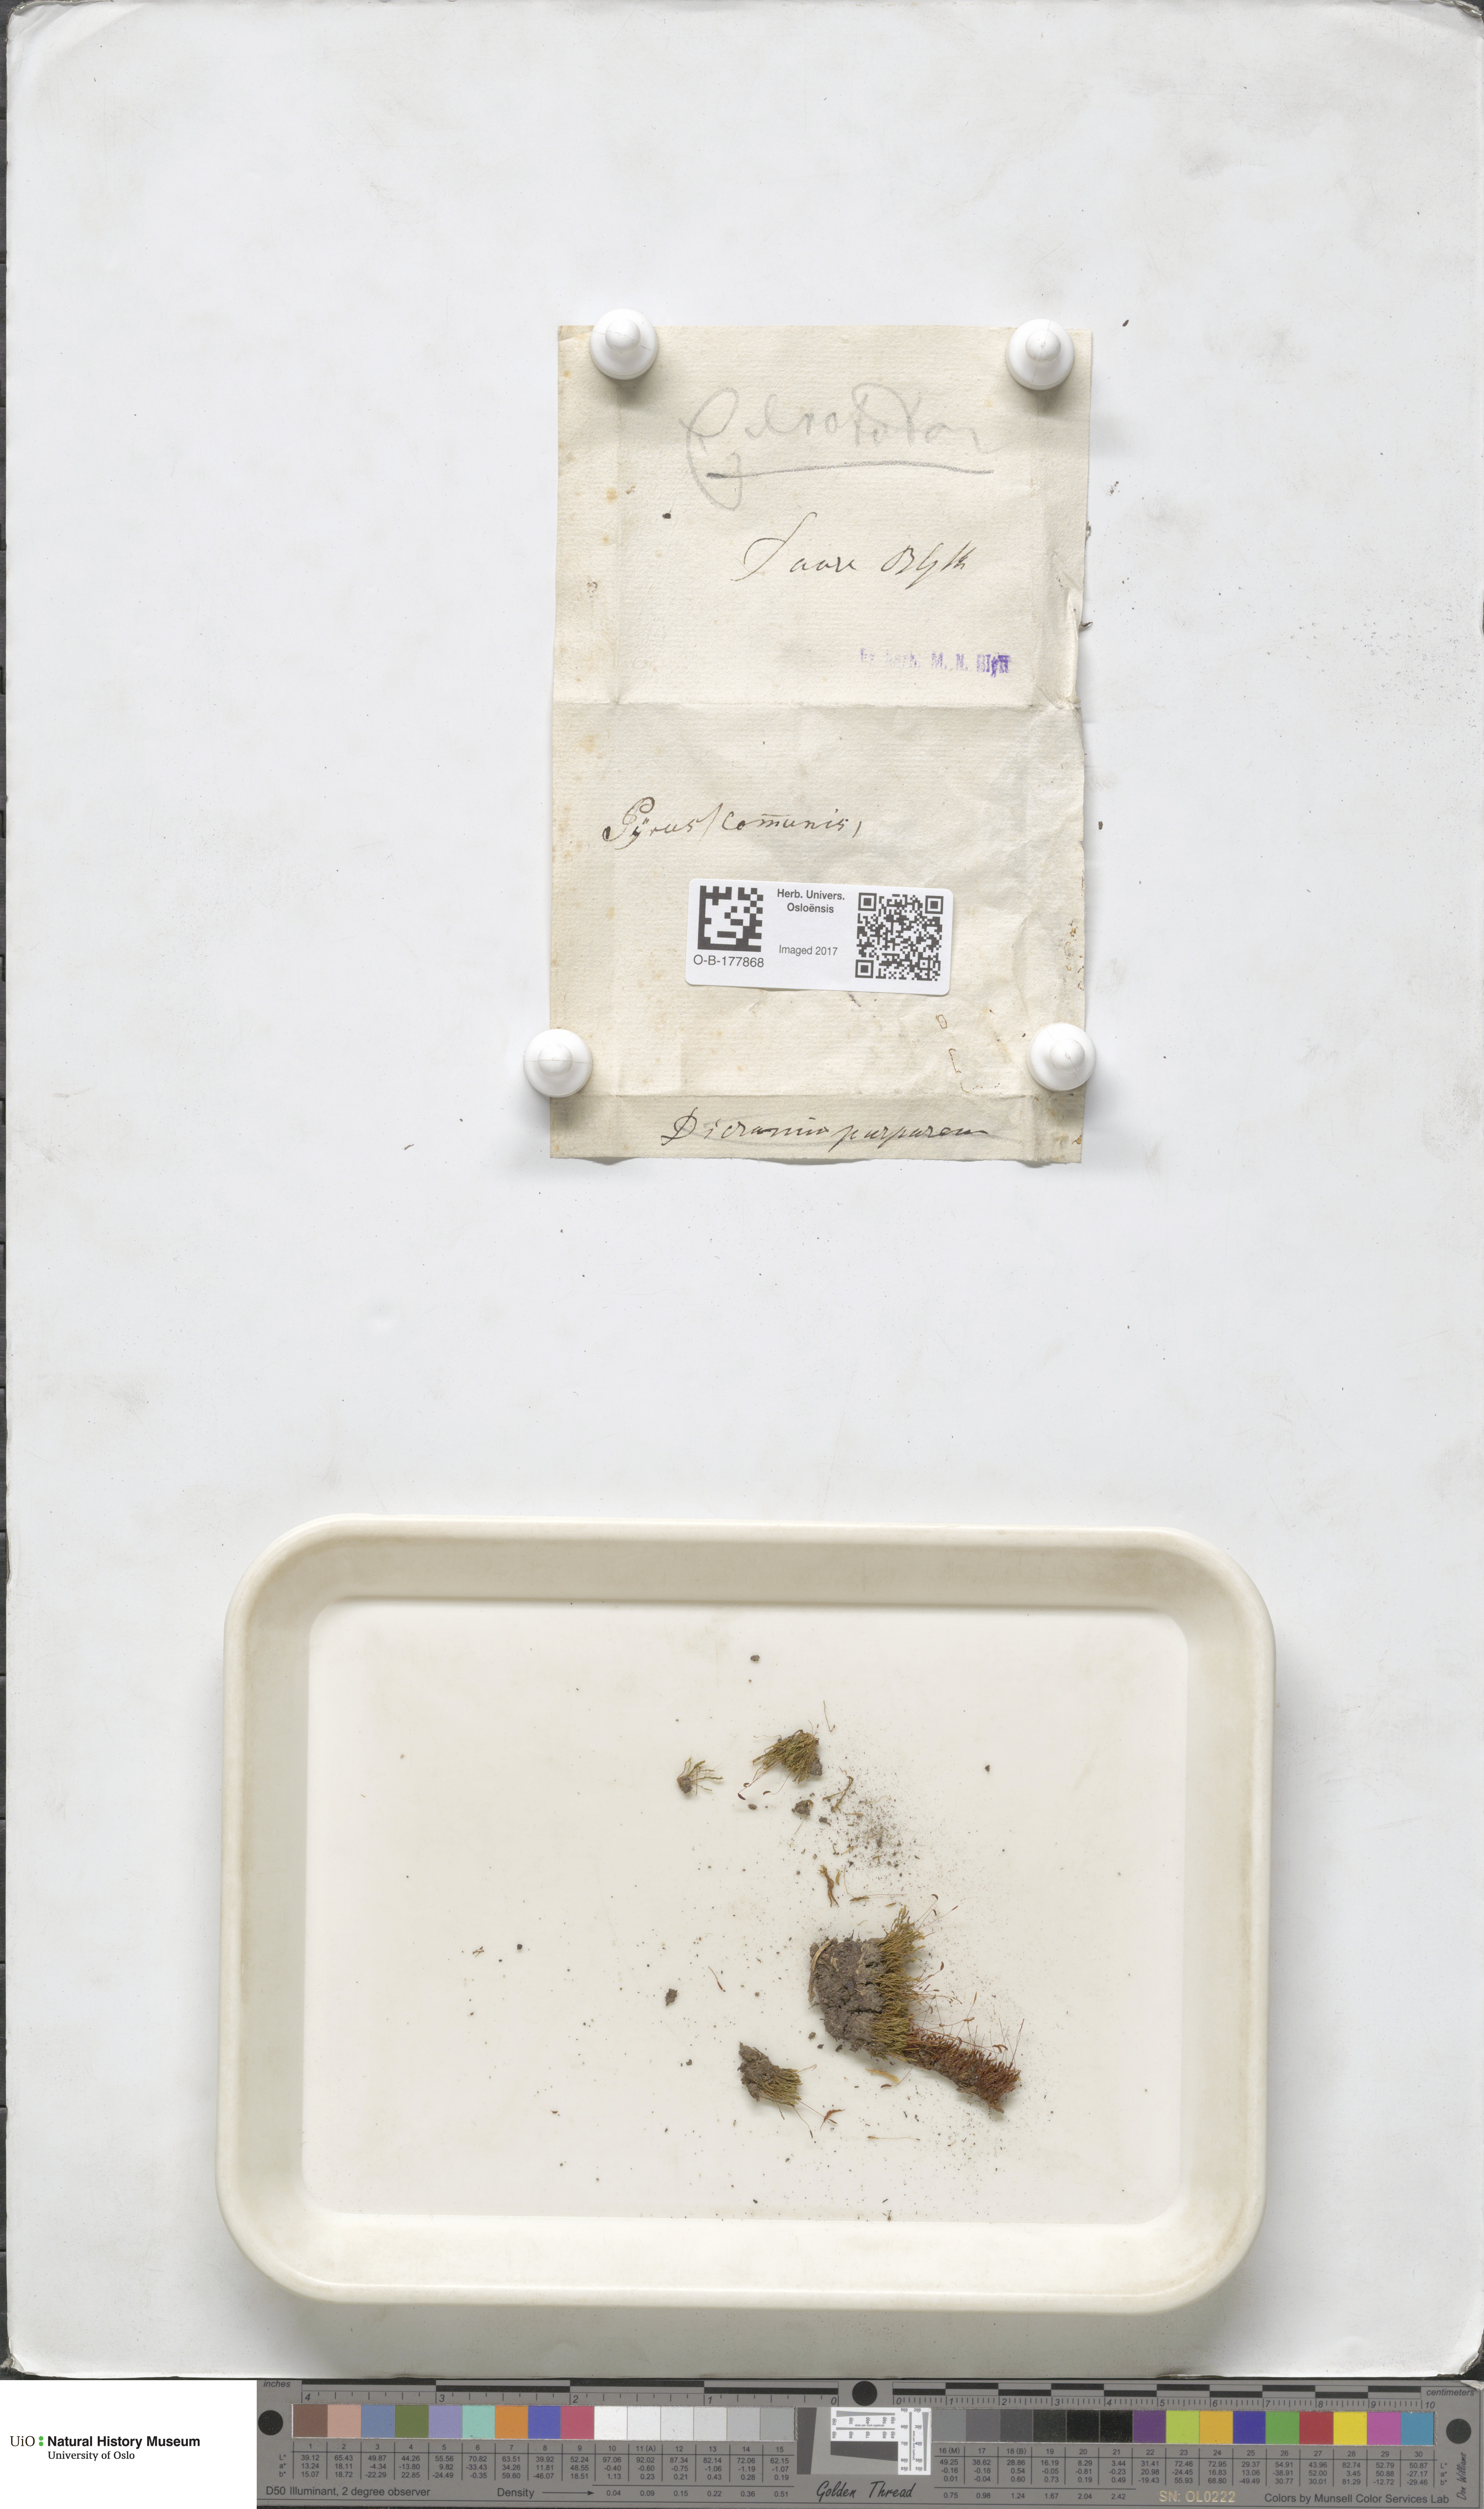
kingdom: Plantae
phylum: Bryophyta
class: Bryopsida
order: Dicranales
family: Ditrichaceae
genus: Ceratodon
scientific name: Ceratodon purpureus
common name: Redshank
